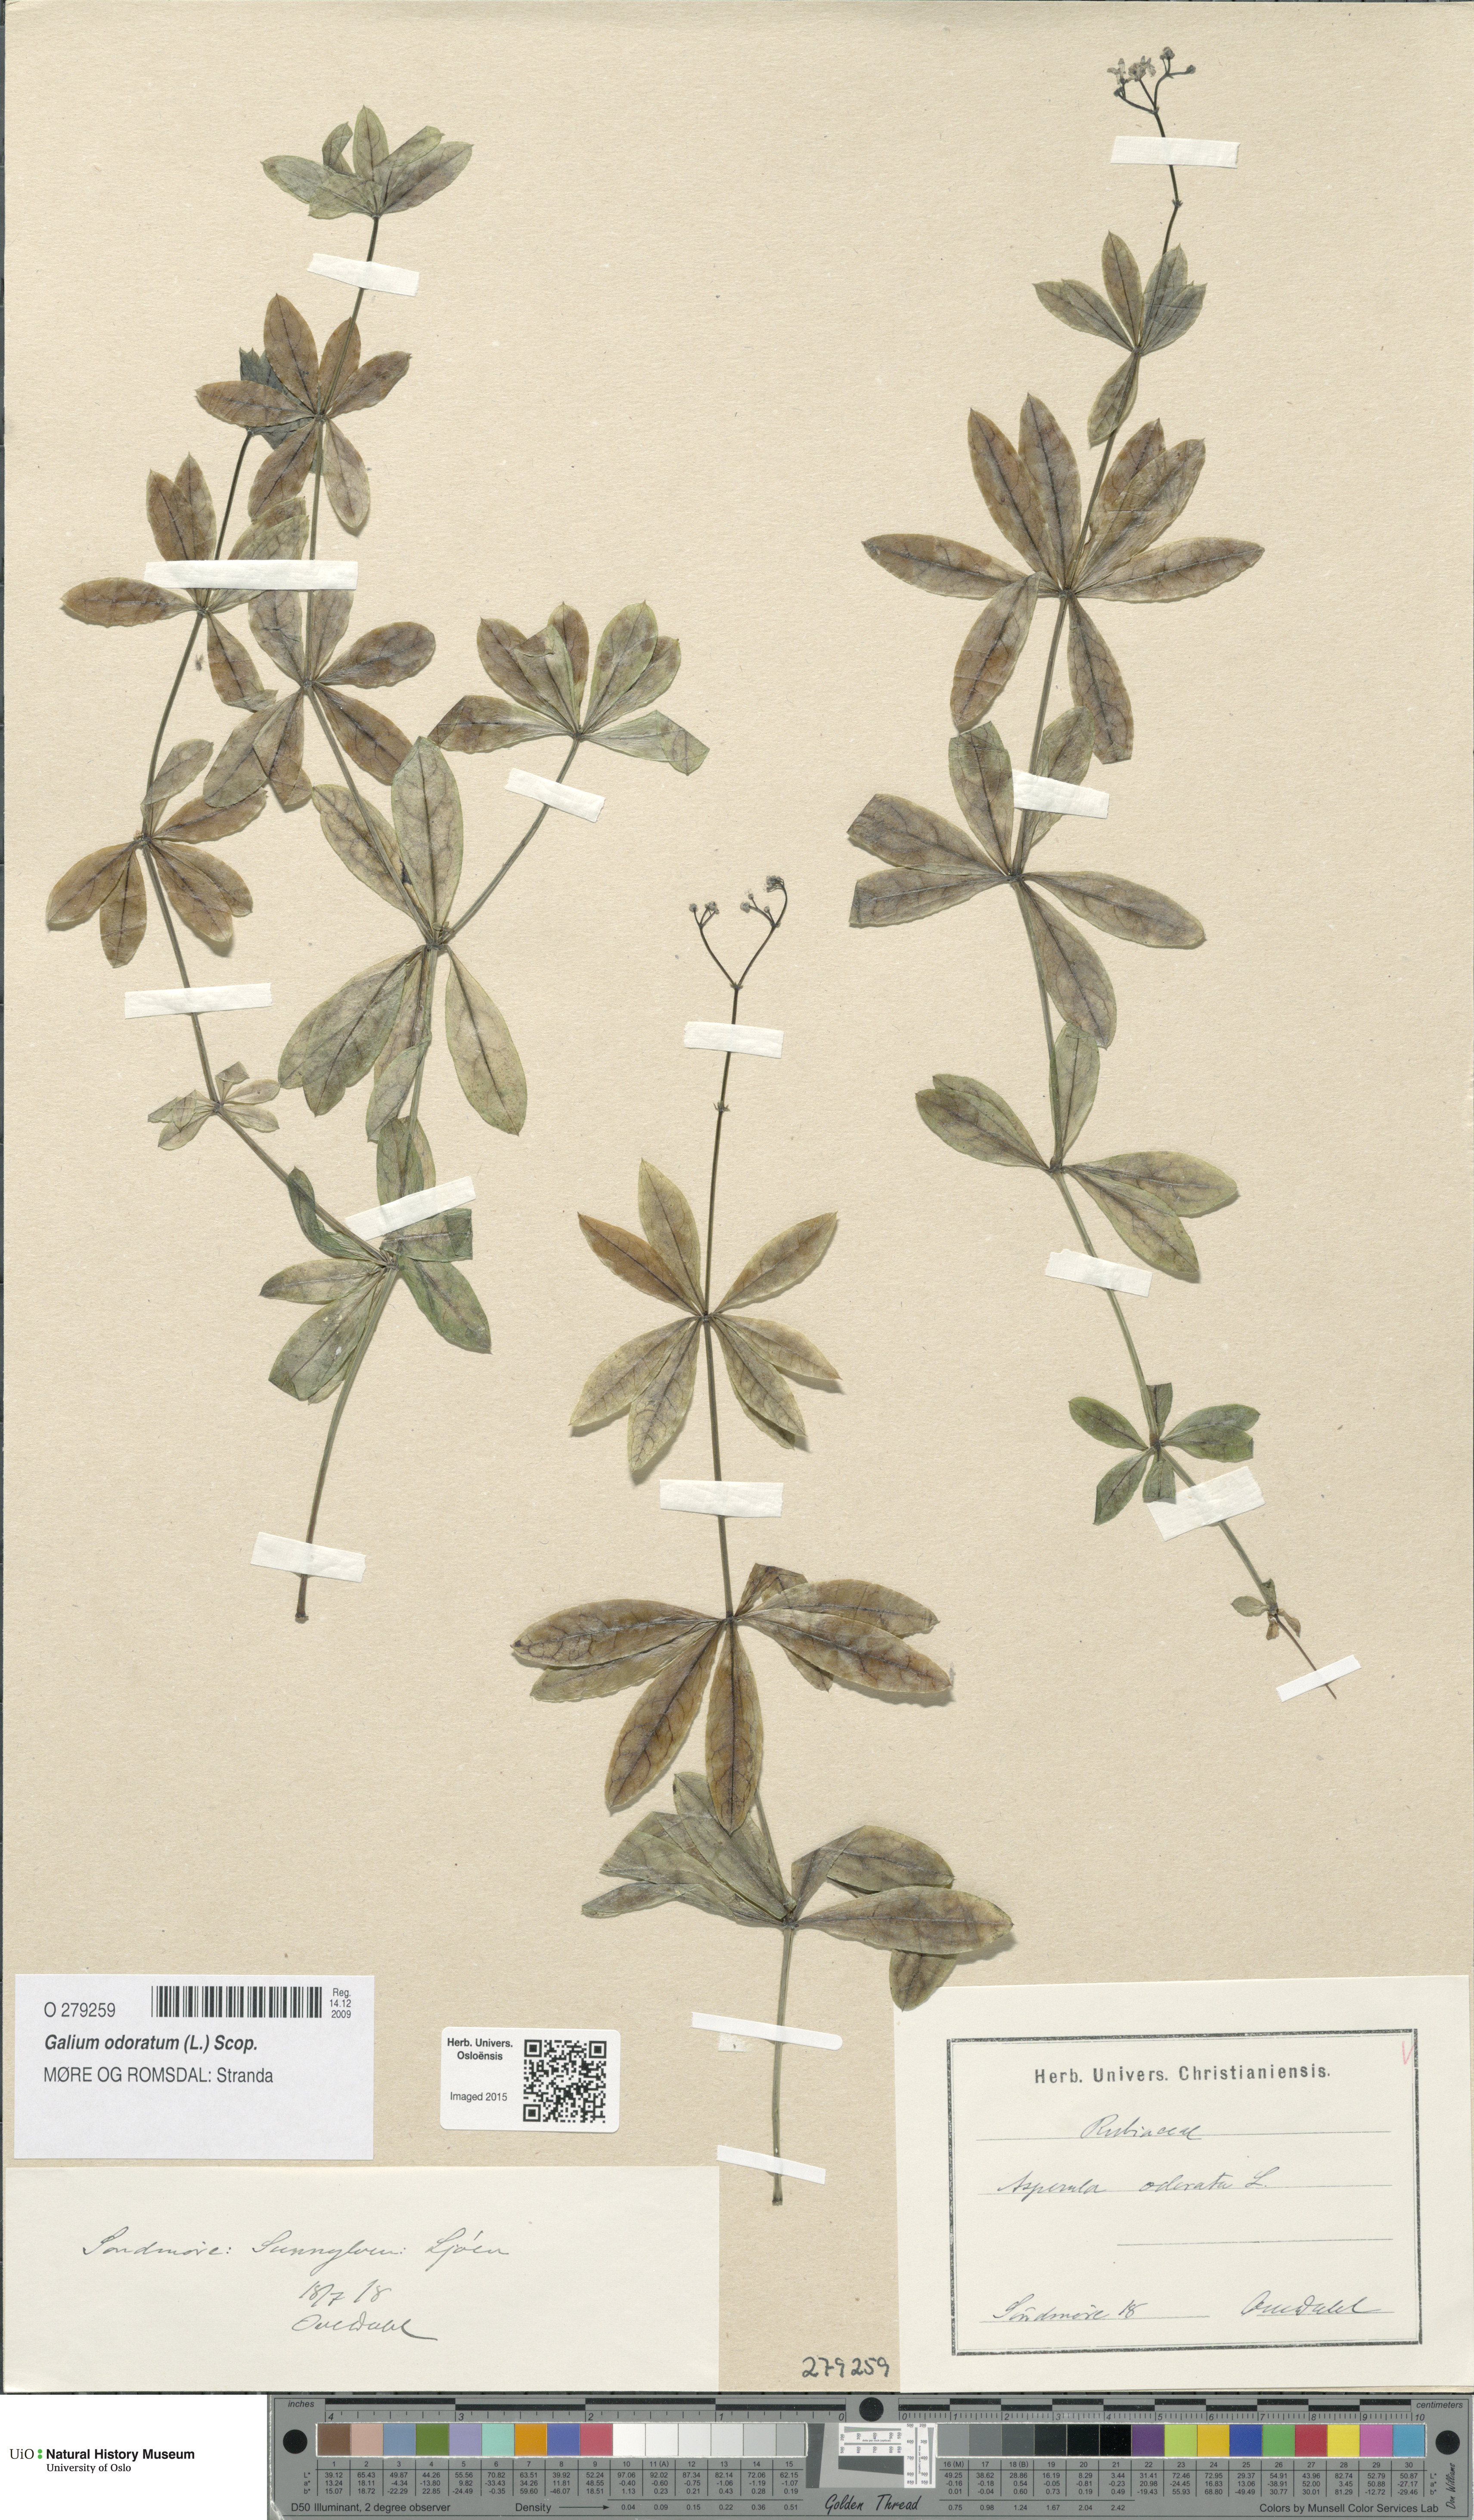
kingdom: Plantae
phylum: Tracheophyta
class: Magnoliopsida
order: Gentianales
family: Rubiaceae
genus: Galium
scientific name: Galium odoratum
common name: Sweet woodruff
